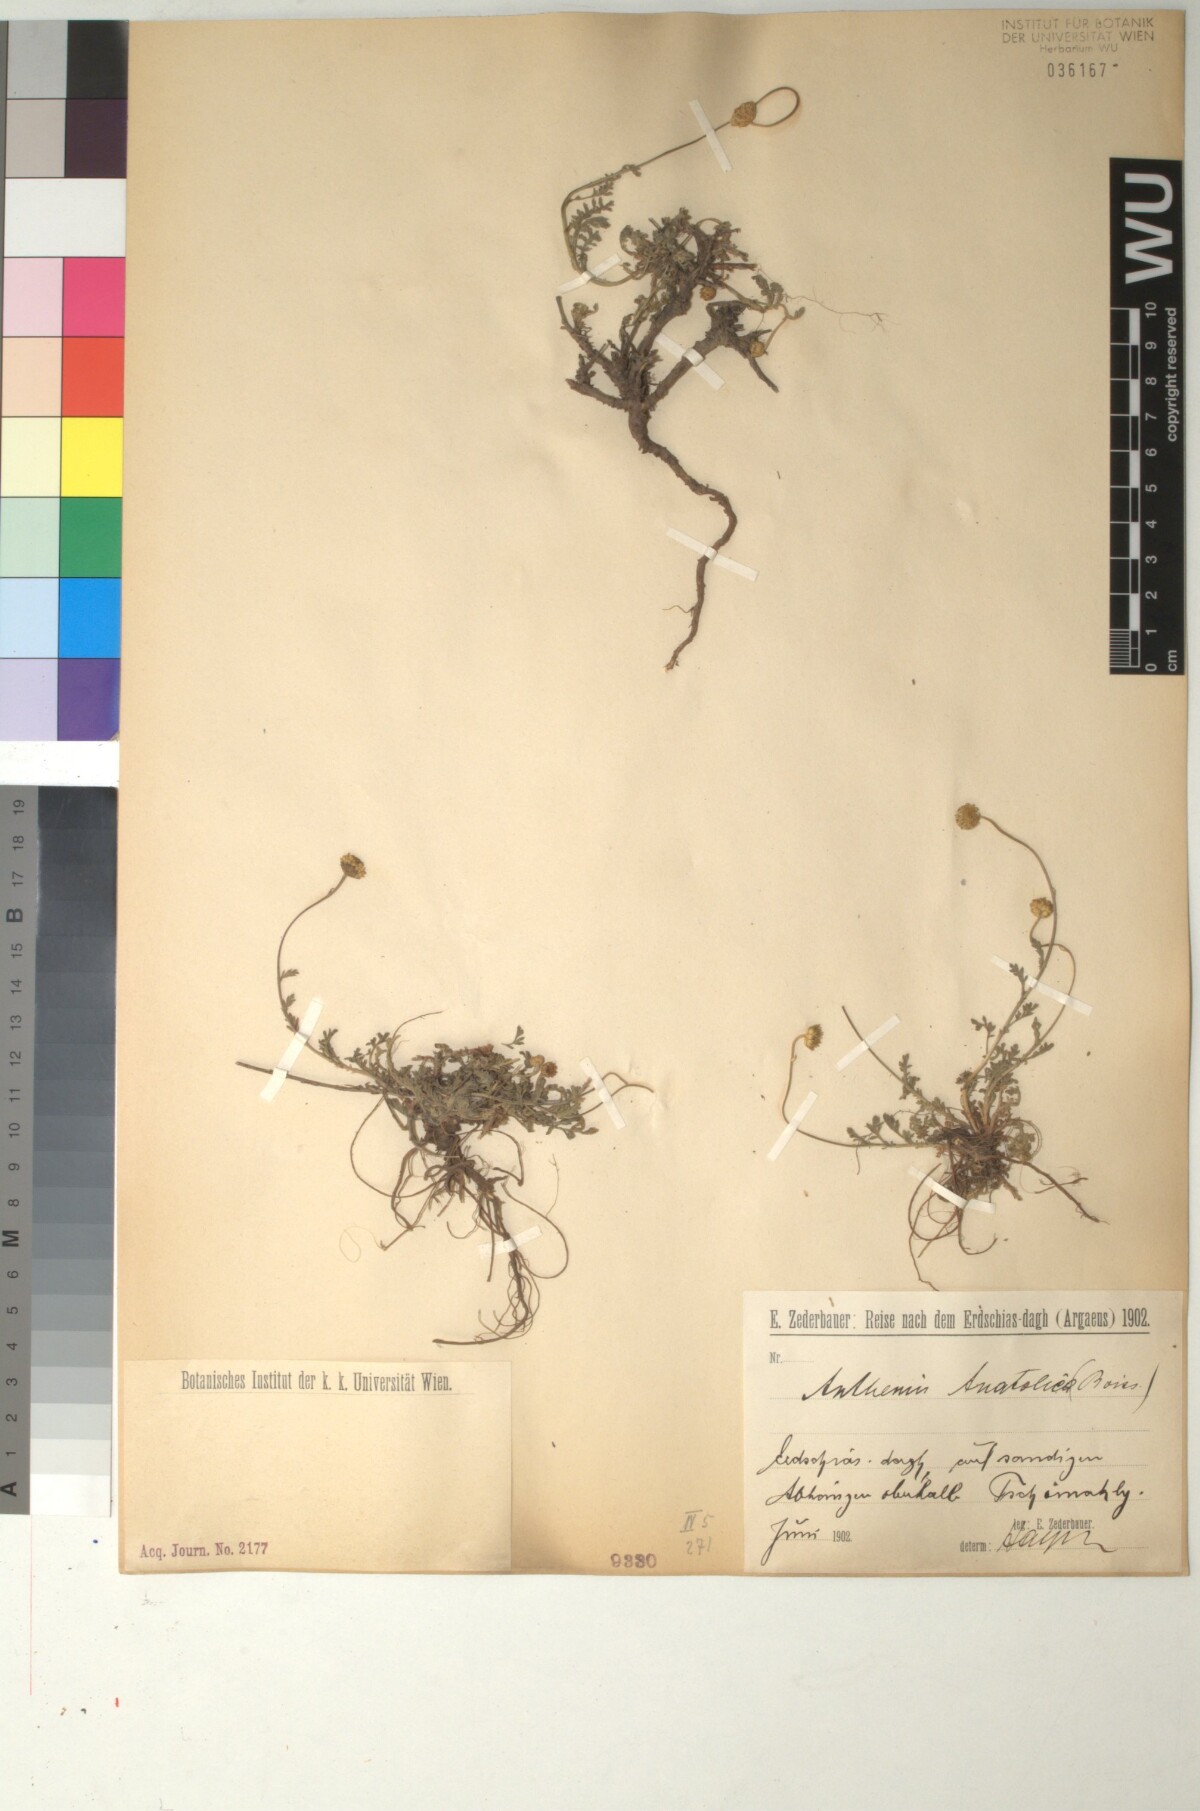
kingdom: Plantae
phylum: Tracheophyta
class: Magnoliopsida
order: Asterales
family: Asteraceae
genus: Anthemis
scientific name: Anthemis cretica
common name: Mountain dog-daisy
